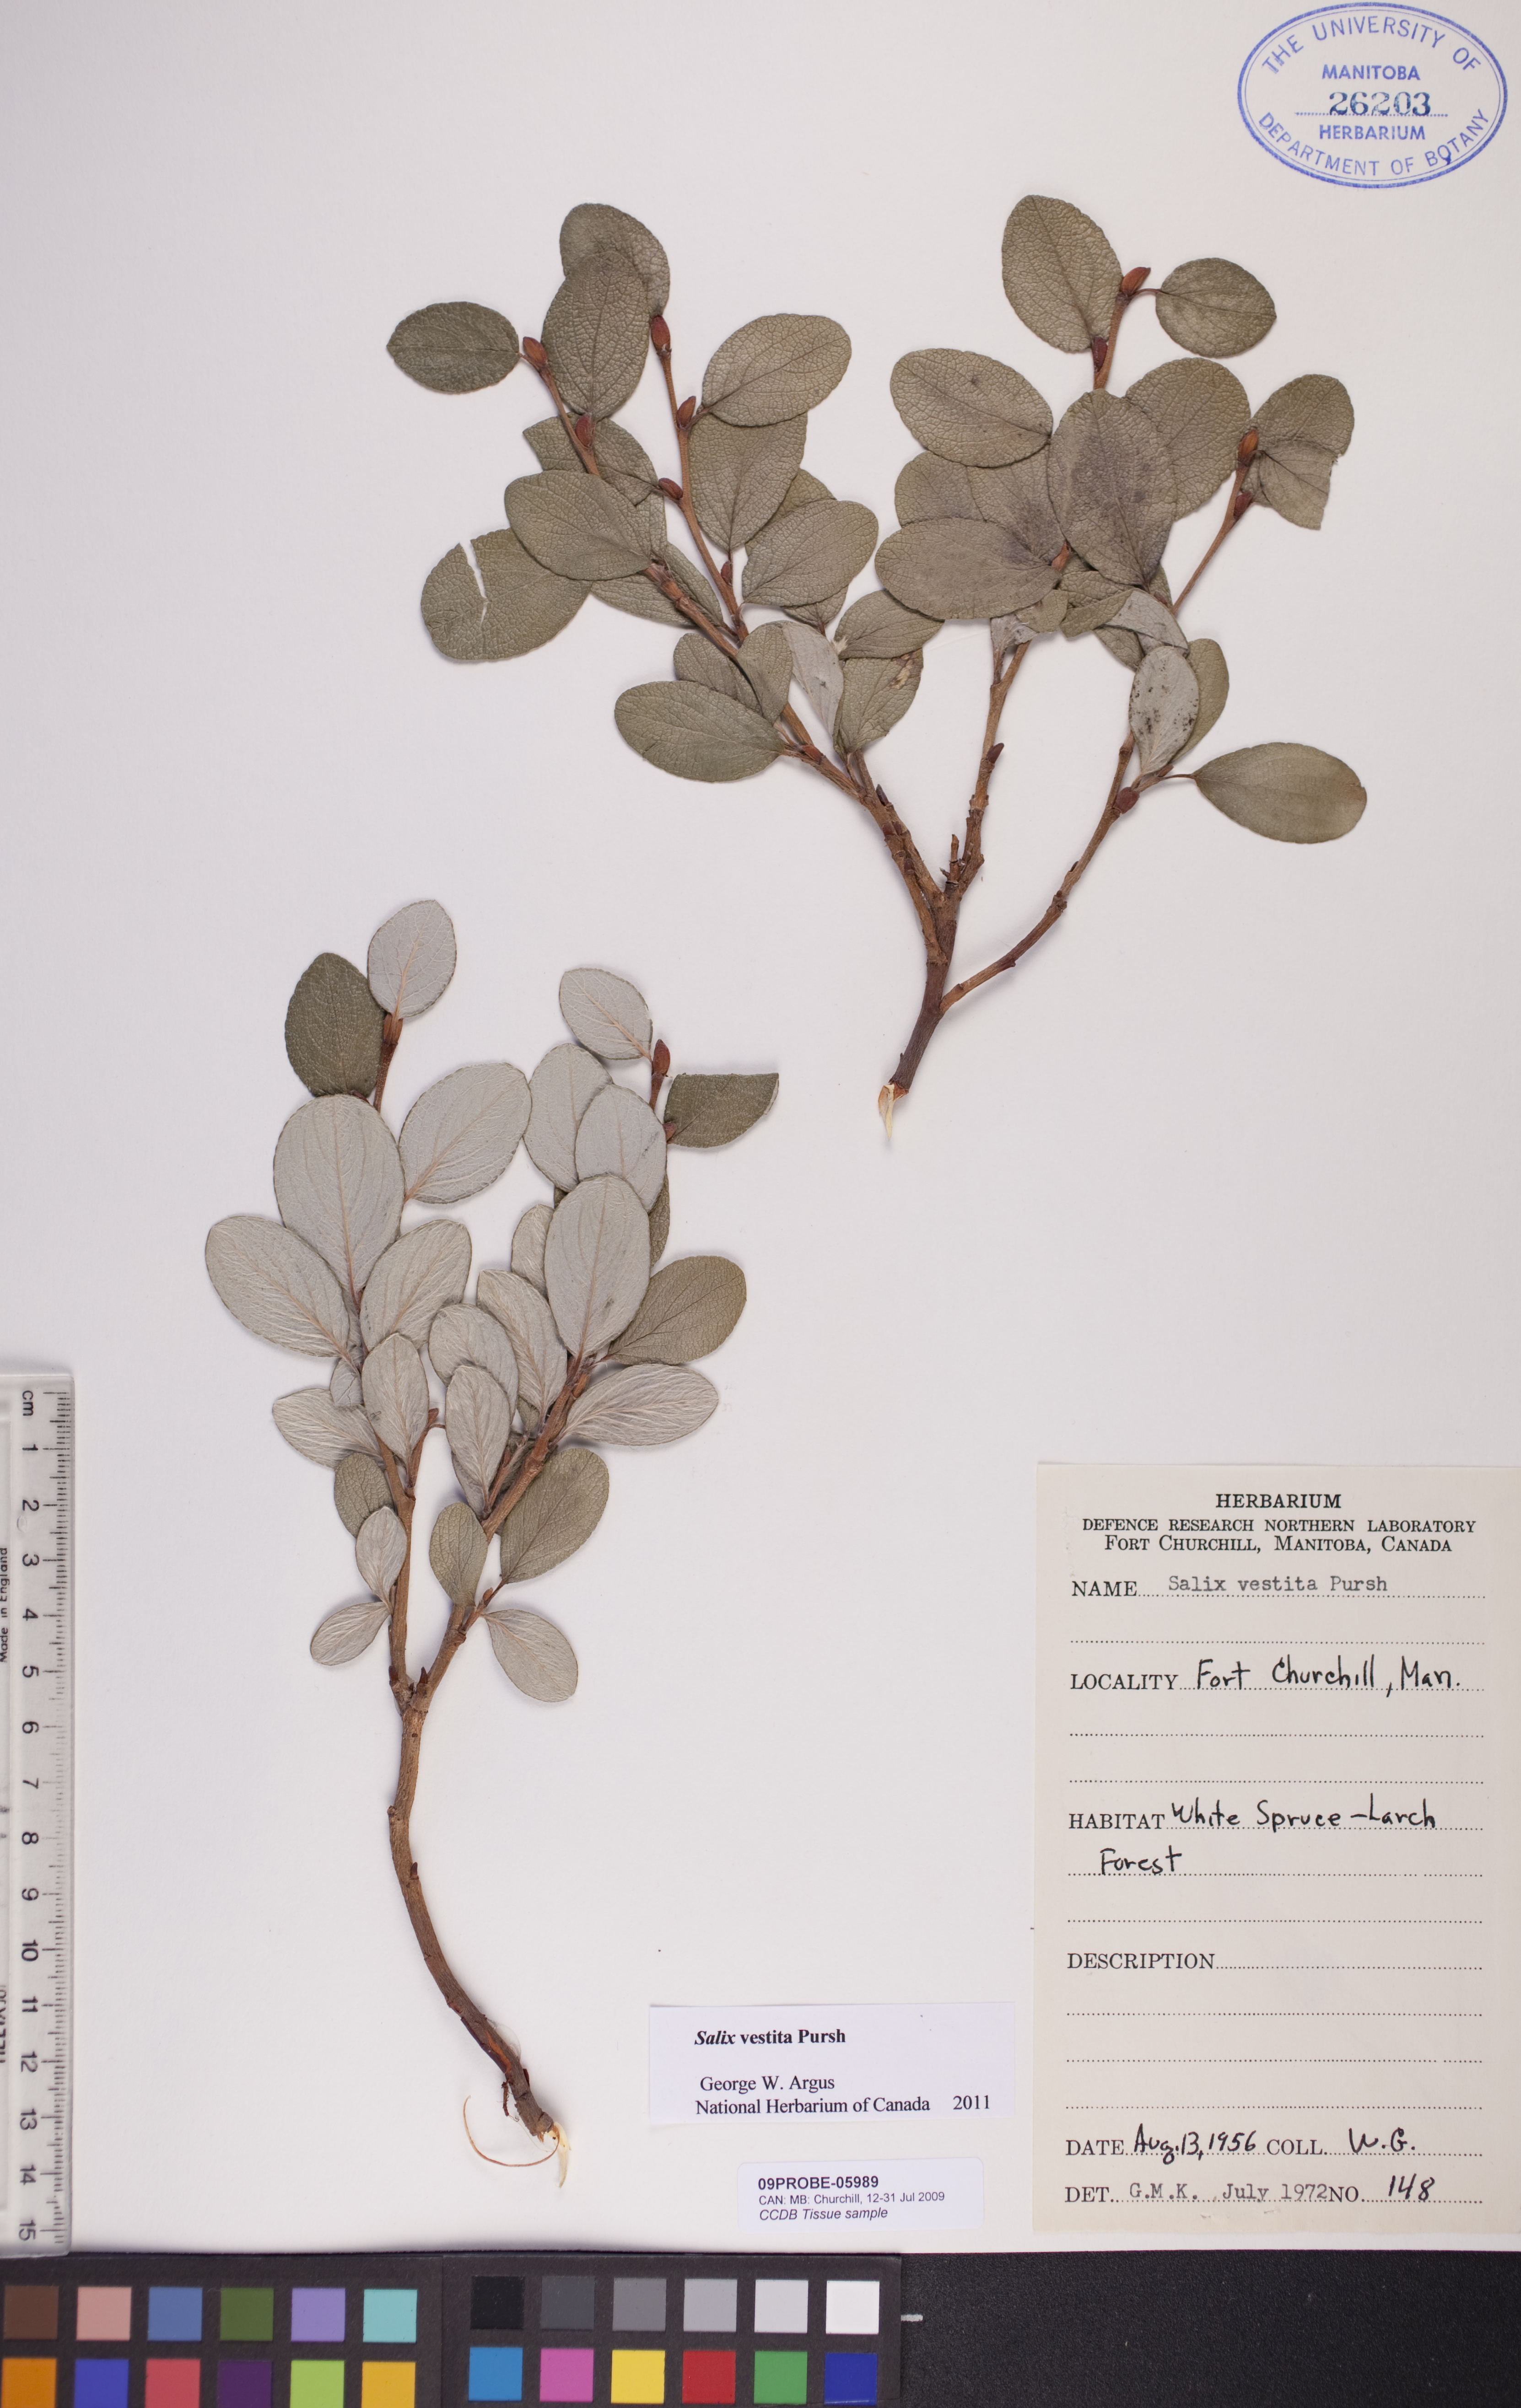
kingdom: Plantae
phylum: Tracheophyta
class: Magnoliopsida
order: Malpighiales
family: Salicaceae
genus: Salix
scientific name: Salix vestita
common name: Hairy willow
